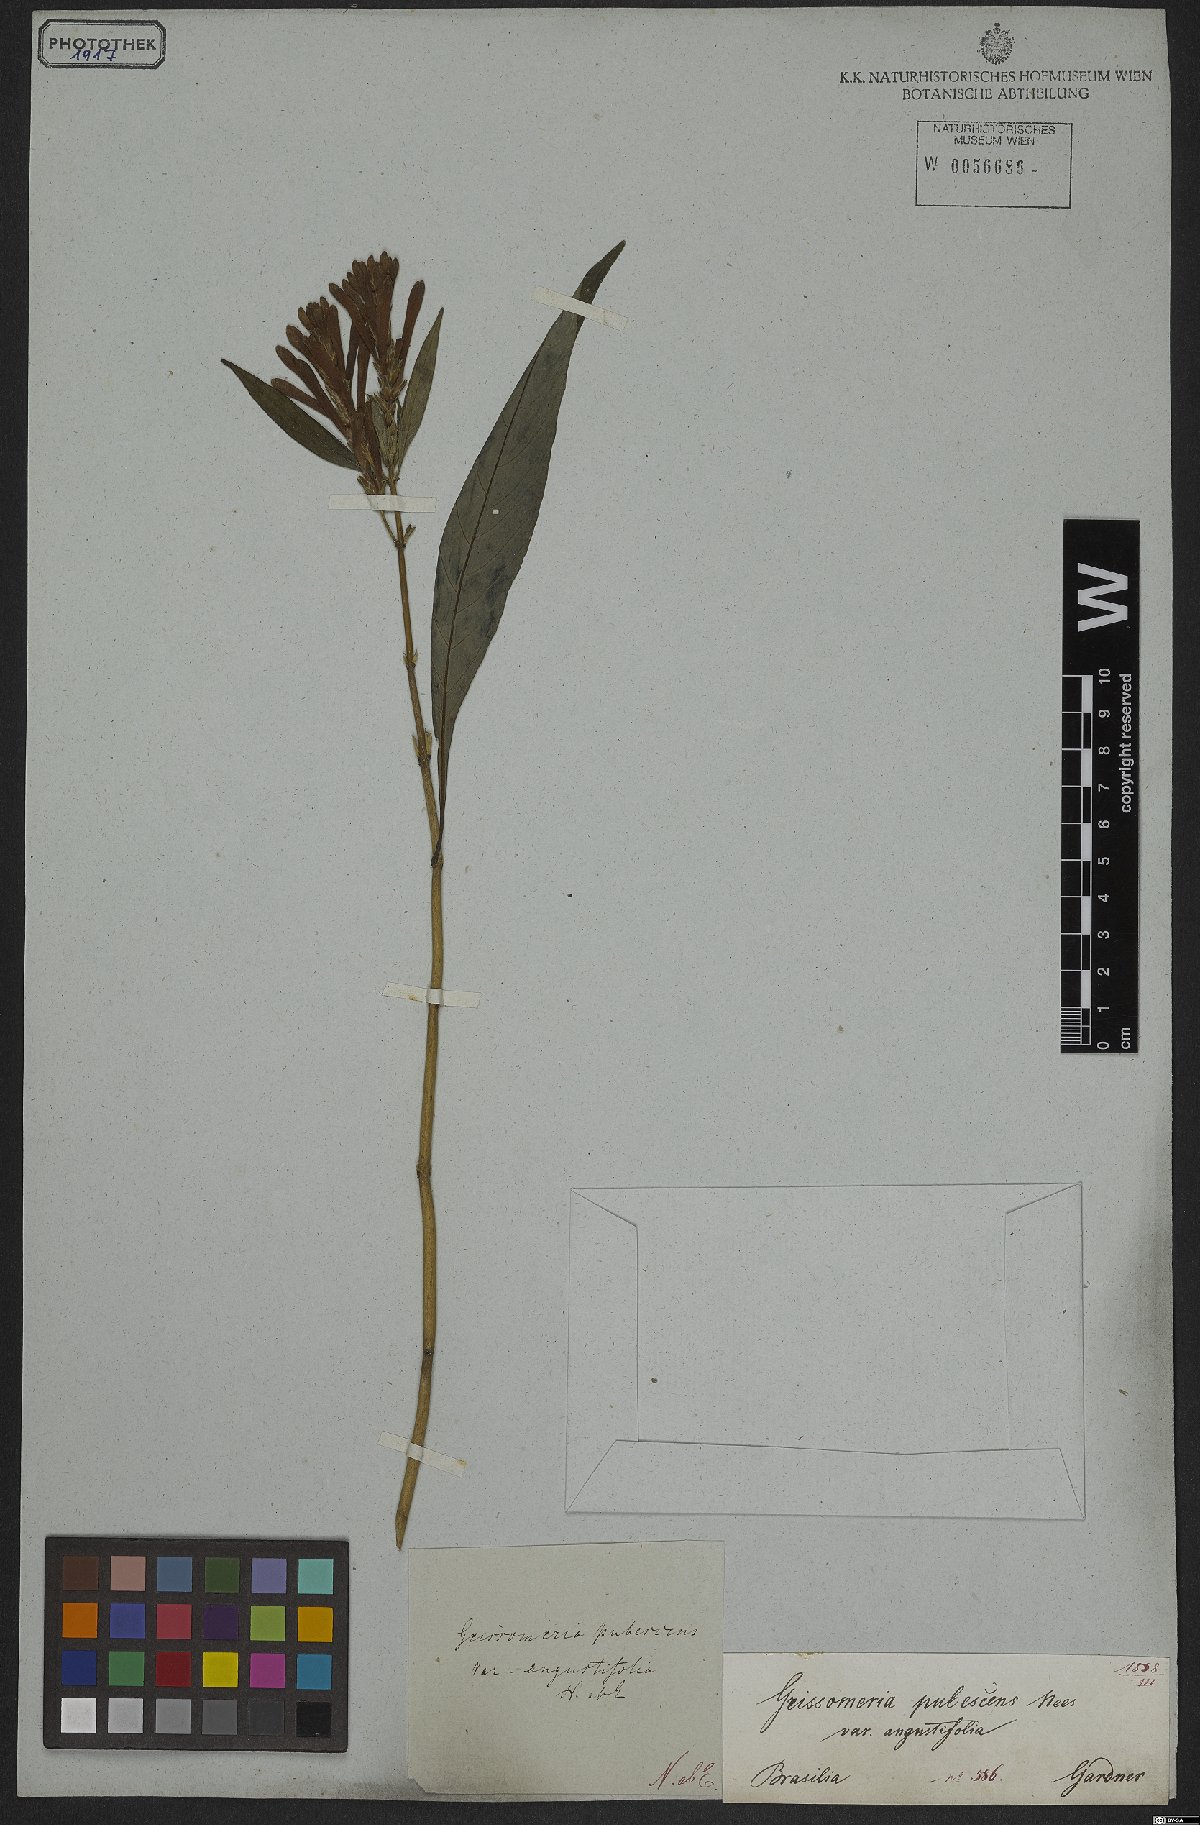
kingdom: Plantae
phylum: Tracheophyta
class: Magnoliopsida
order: Lamiales
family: Acanthaceae
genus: Aphelandra
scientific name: Aphelandra longiflora
